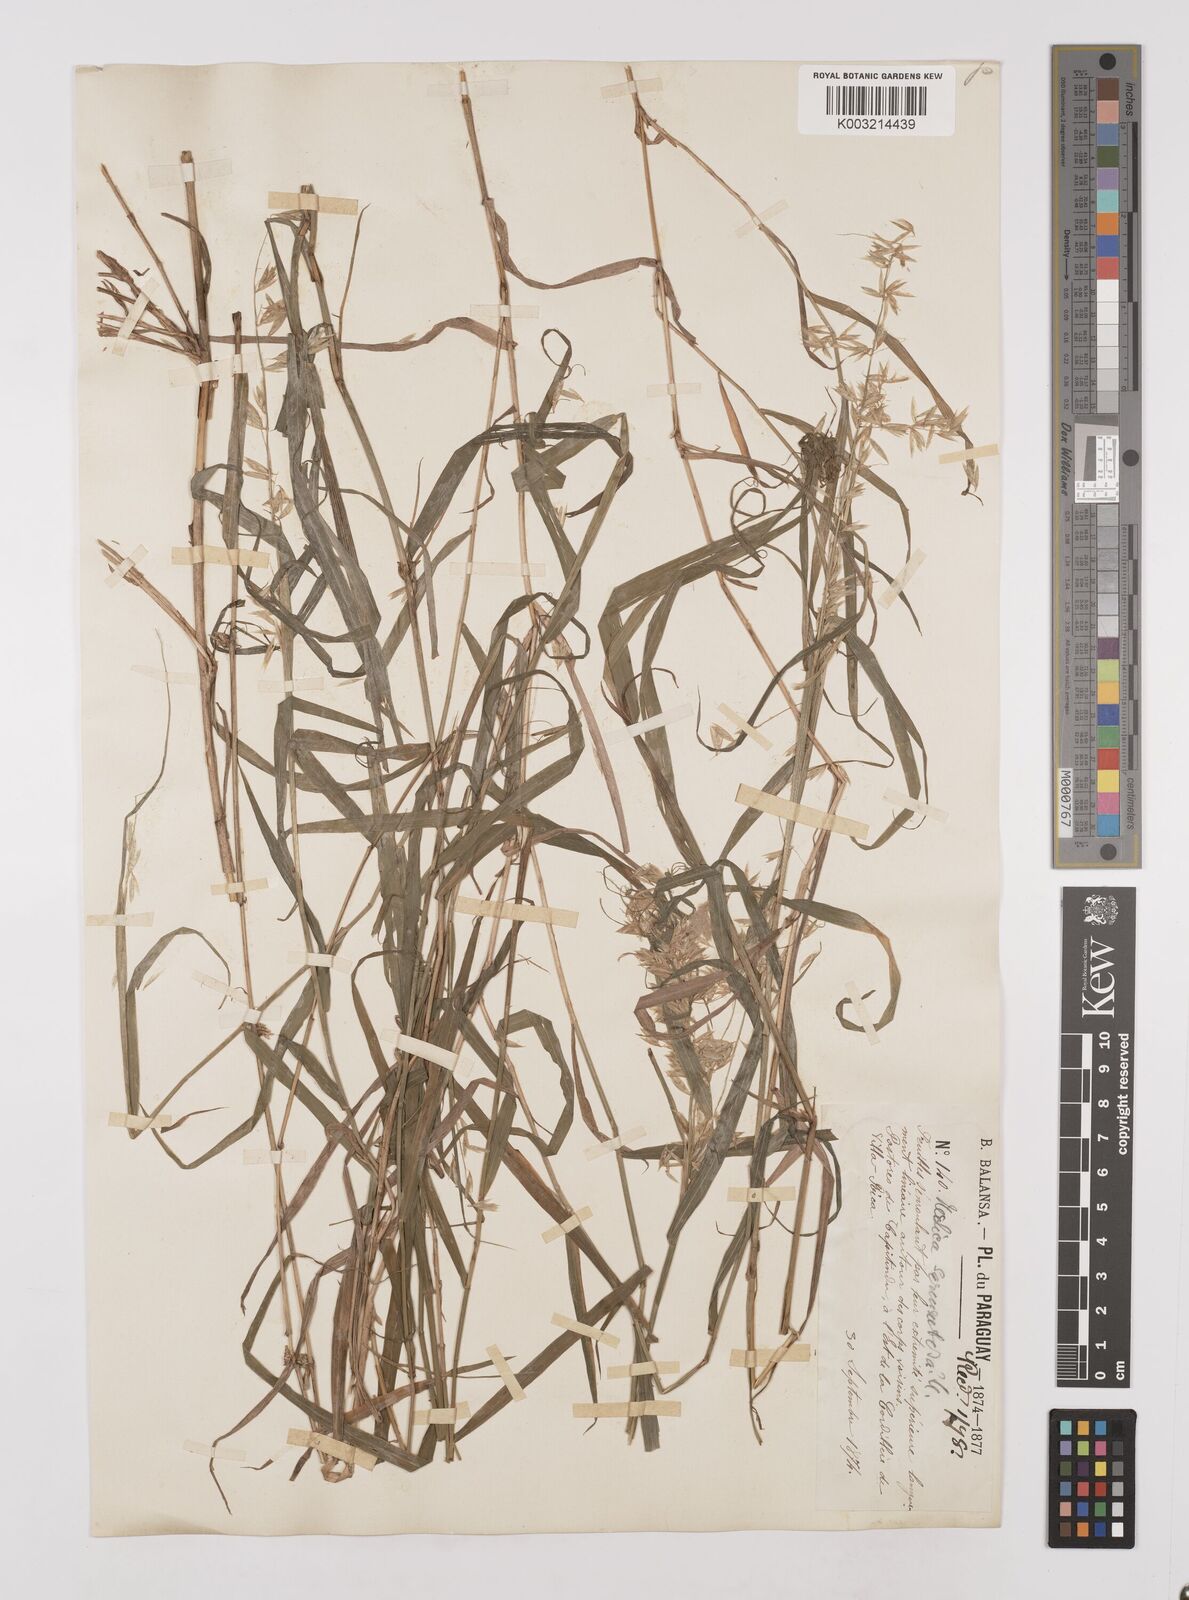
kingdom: Plantae
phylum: Tracheophyta
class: Liliopsida
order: Poales
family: Poaceae
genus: Melica
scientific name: Melica sarmentosa
